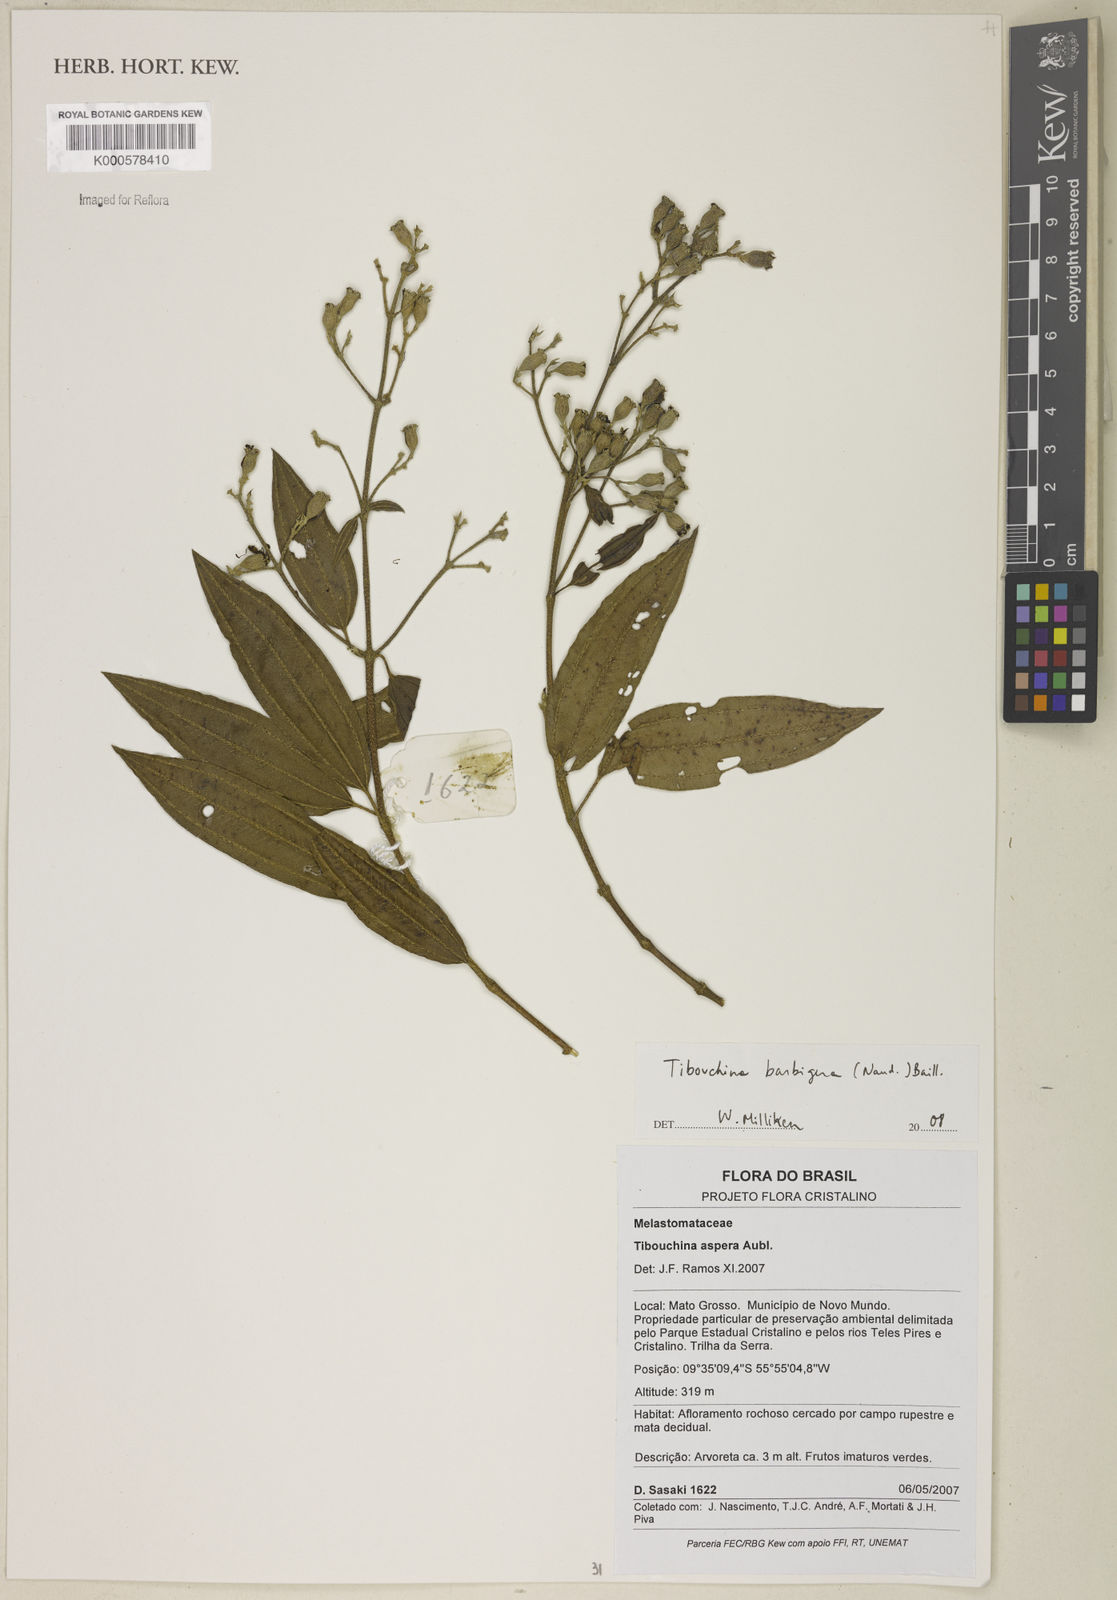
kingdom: Plantae
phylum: Tracheophyta
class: Magnoliopsida
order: Myrtales
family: Melastomataceae
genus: Pleroma
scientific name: Pleroma barbigerum
